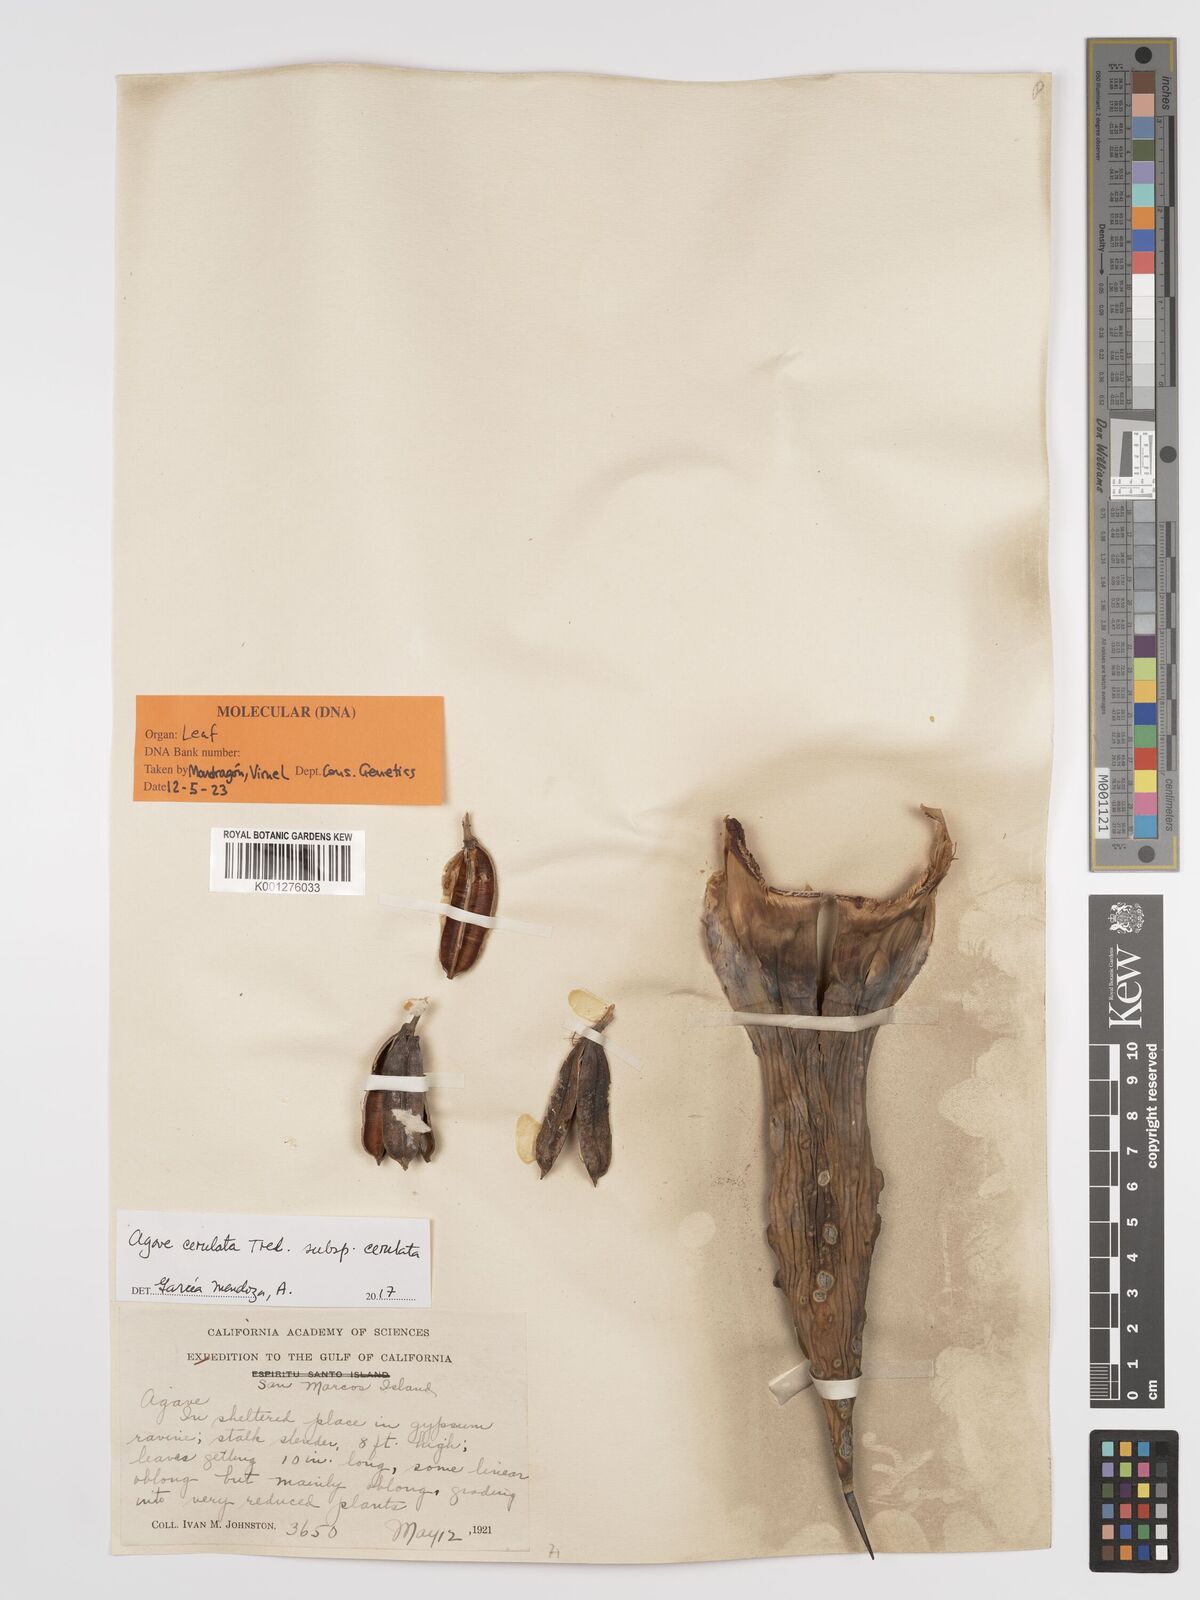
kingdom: Plantae
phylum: Tracheophyta
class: Liliopsida
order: Asparagales
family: Asparagaceae
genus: Agave
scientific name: Agave cerulata
